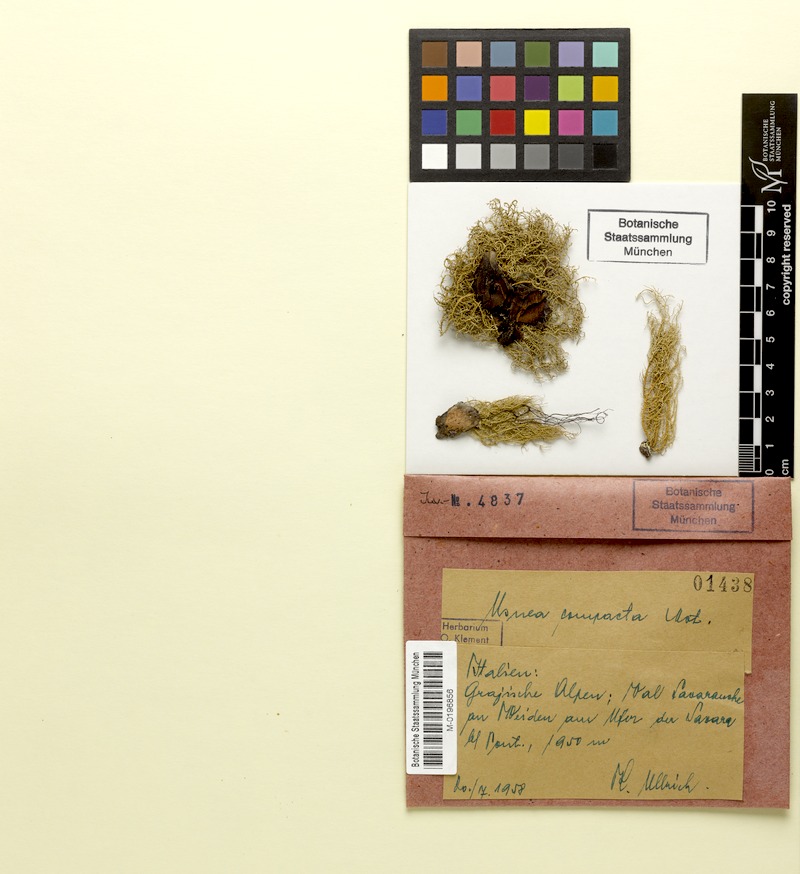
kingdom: Fungi
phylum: Ascomycota
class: Lecanoromycetes
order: Lecanorales
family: Parmeliaceae
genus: Usnea
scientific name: Usnea glabrescens
